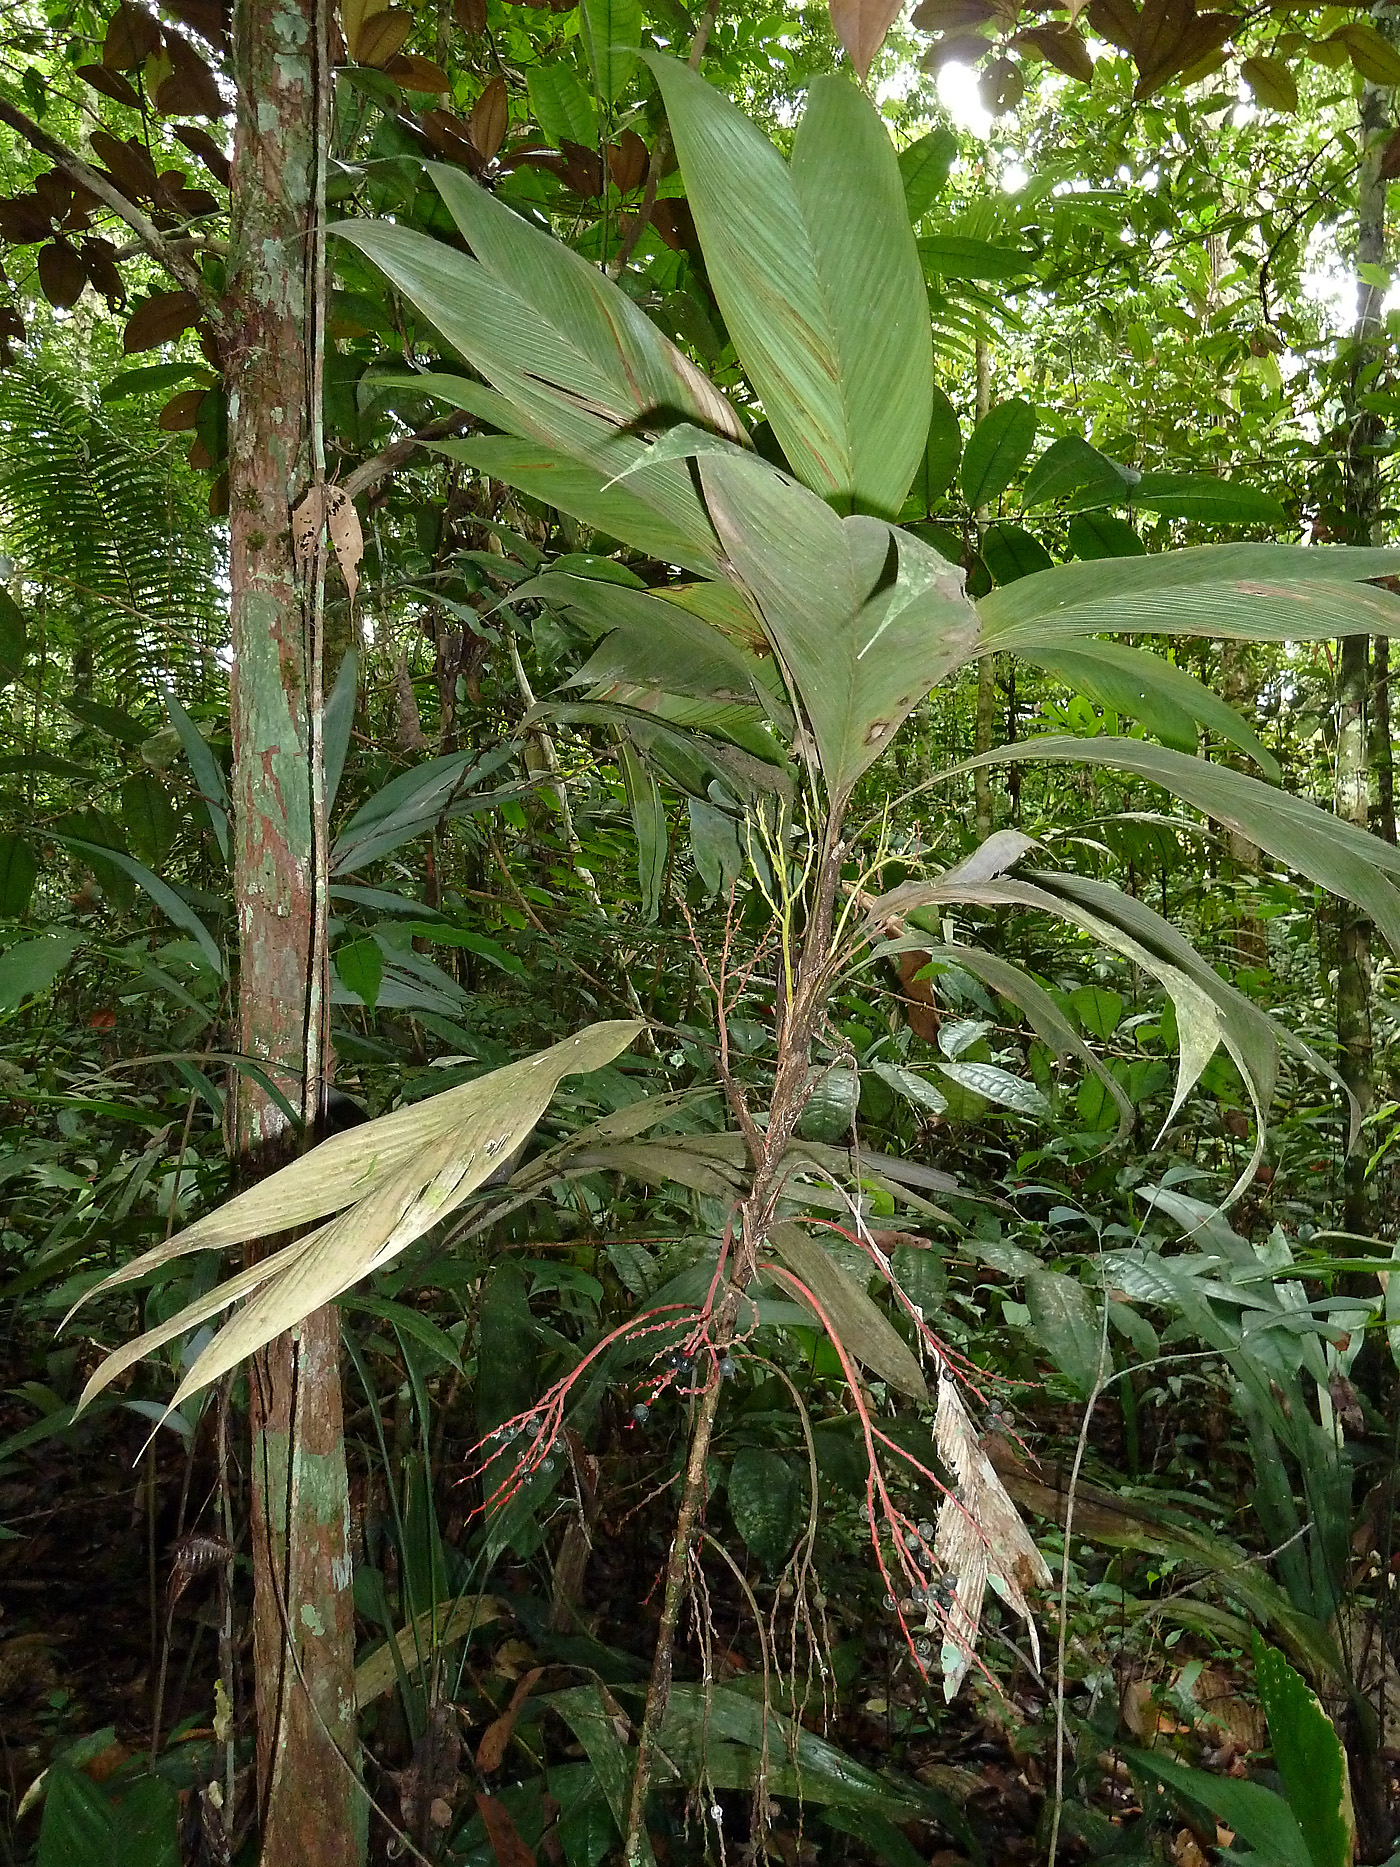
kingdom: Plantae
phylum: Tracheophyta
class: Liliopsida
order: Arecales
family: Arecaceae
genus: Geonoma
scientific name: Geonoma leptospadix
